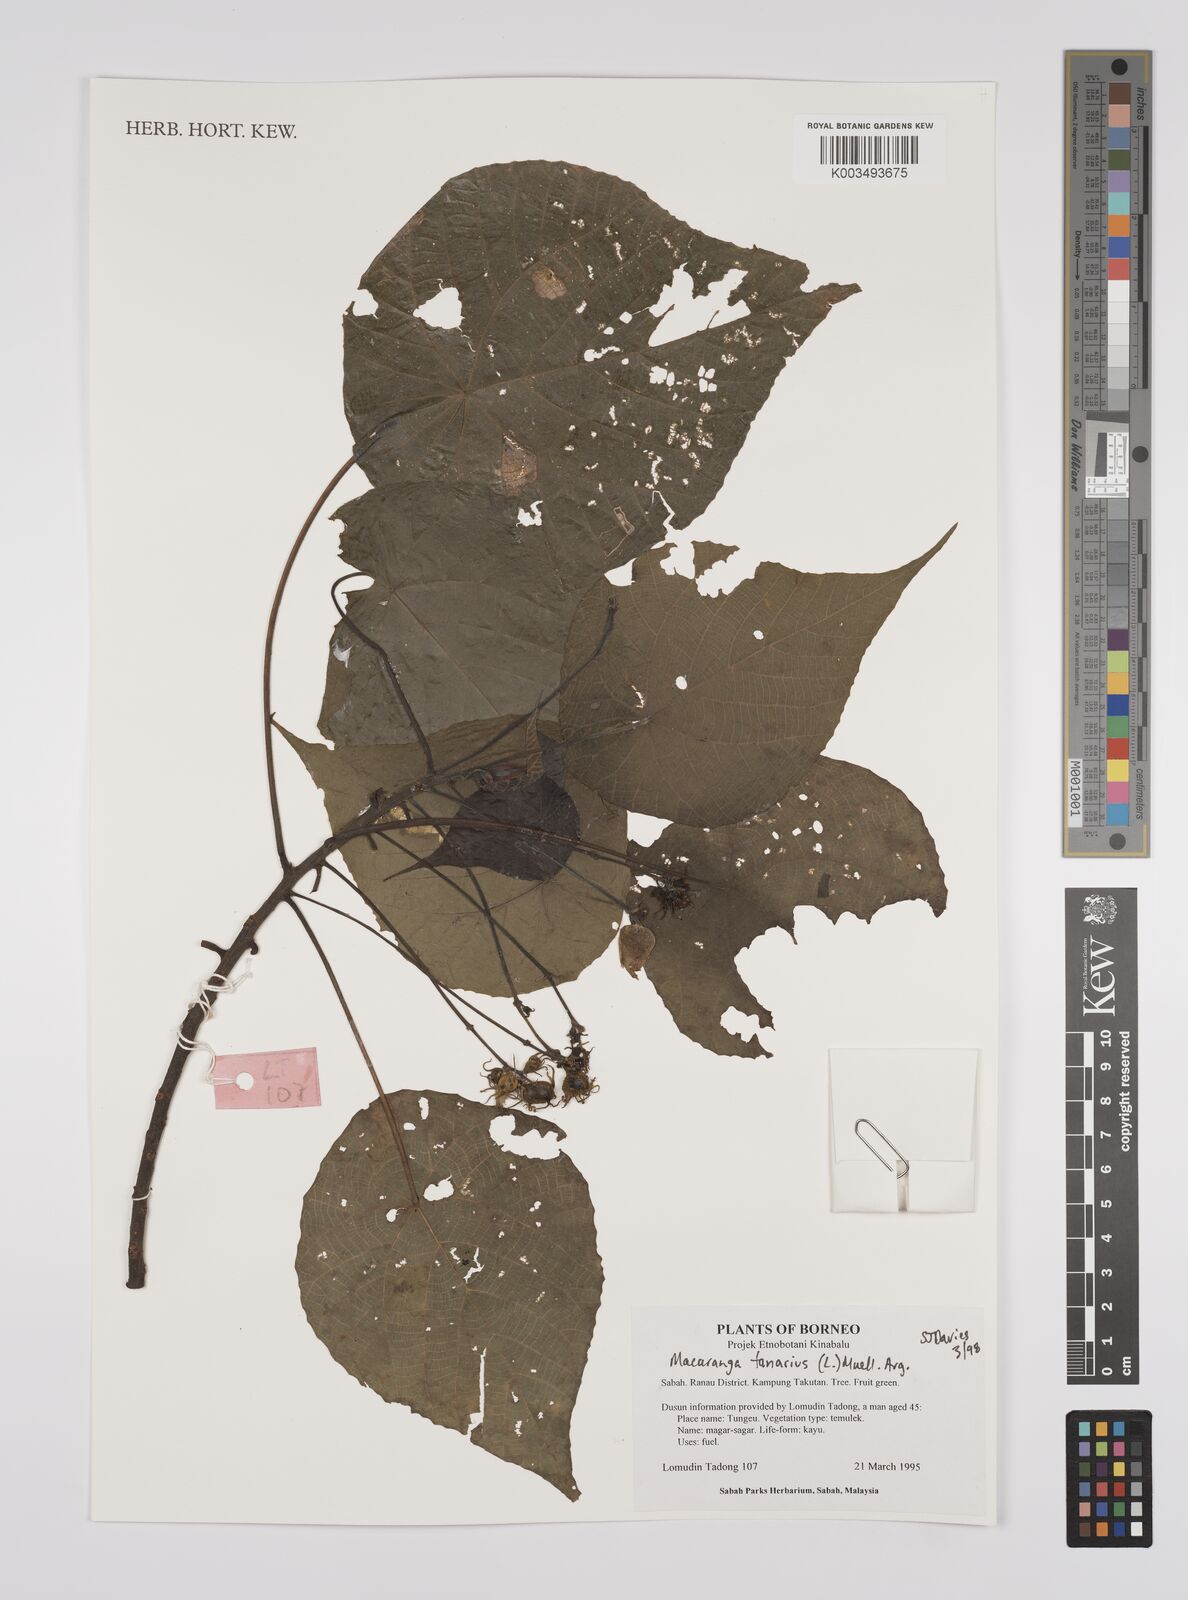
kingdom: Plantae
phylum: Tracheophyta
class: Magnoliopsida
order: Malpighiales
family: Euphorbiaceae
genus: Macaranga
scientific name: Macaranga tanarius
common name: Parasol leaf tree
